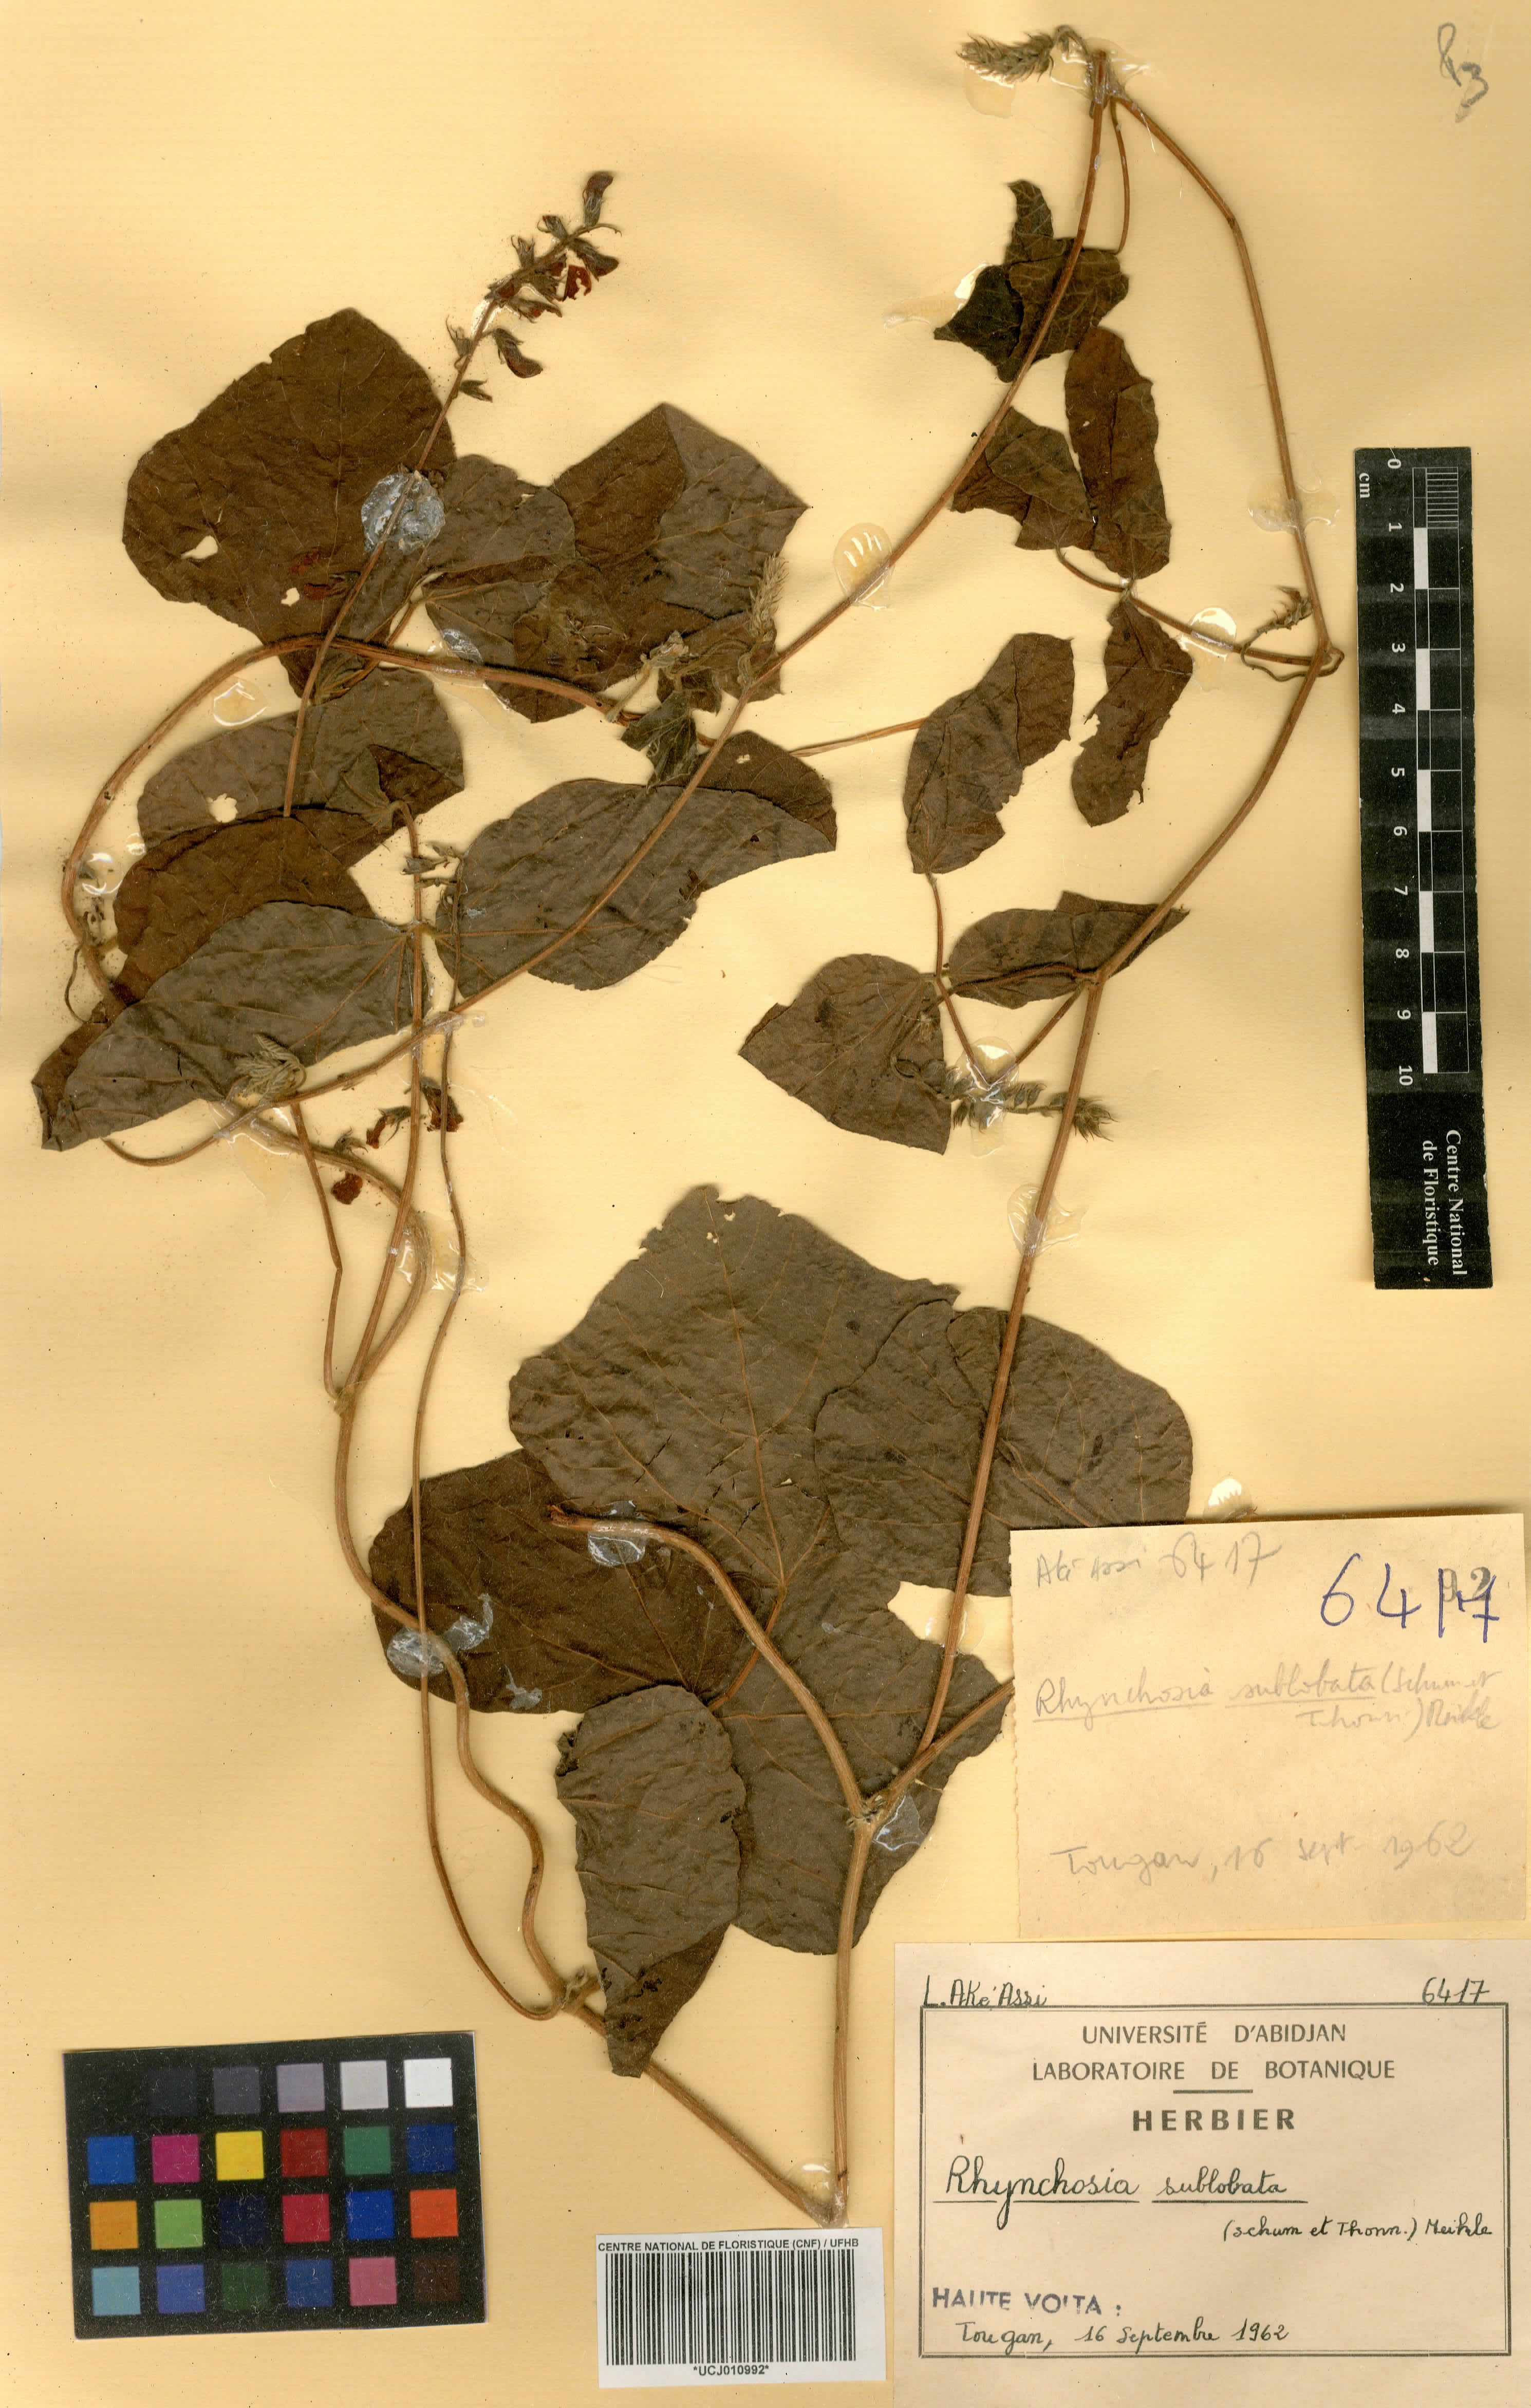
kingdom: Plantae
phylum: Tracheophyta
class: Magnoliopsida
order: Fabales
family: Fabaceae
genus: Rhynchosia
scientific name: Rhynchosia sublobata
